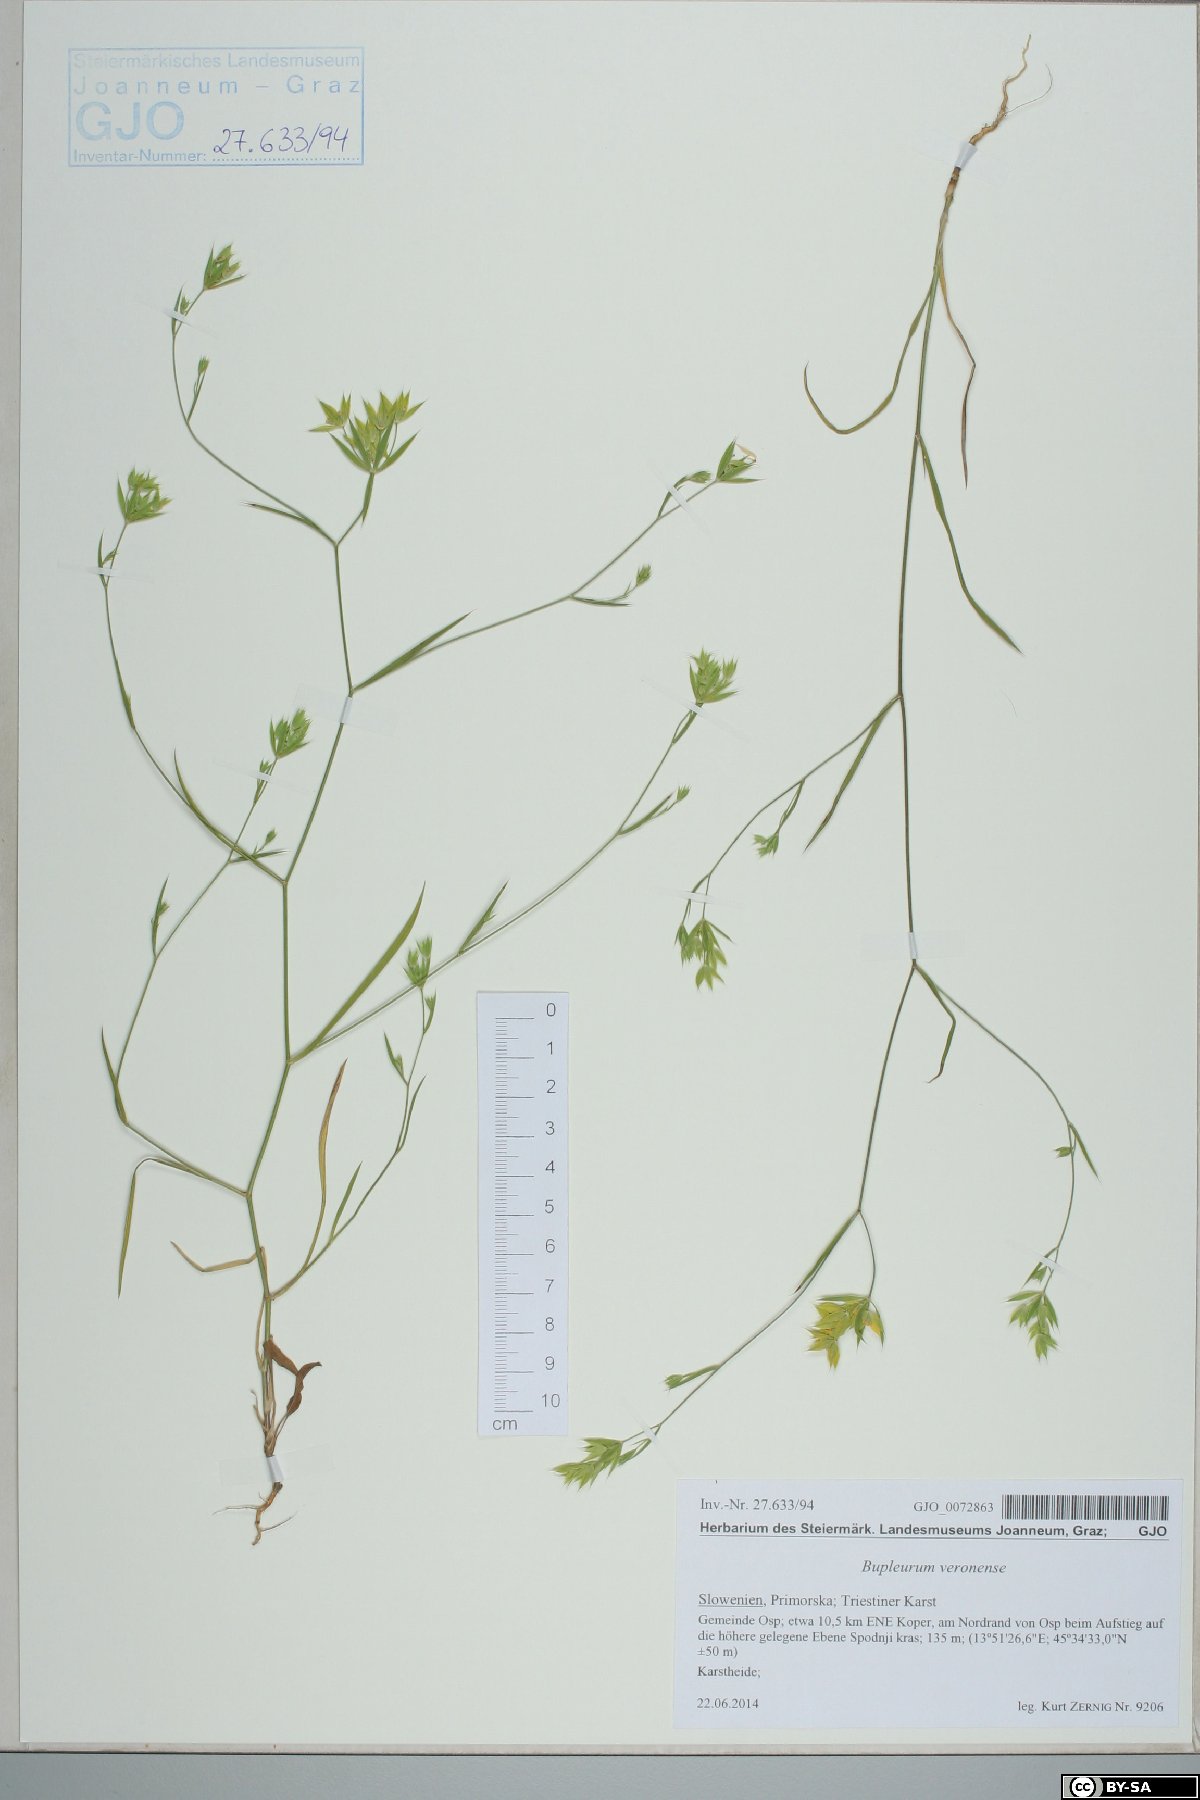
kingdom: Plantae
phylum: Tracheophyta
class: Magnoliopsida
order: Apiales
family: Apiaceae
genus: Bupleurum
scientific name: Bupleurum veronense
